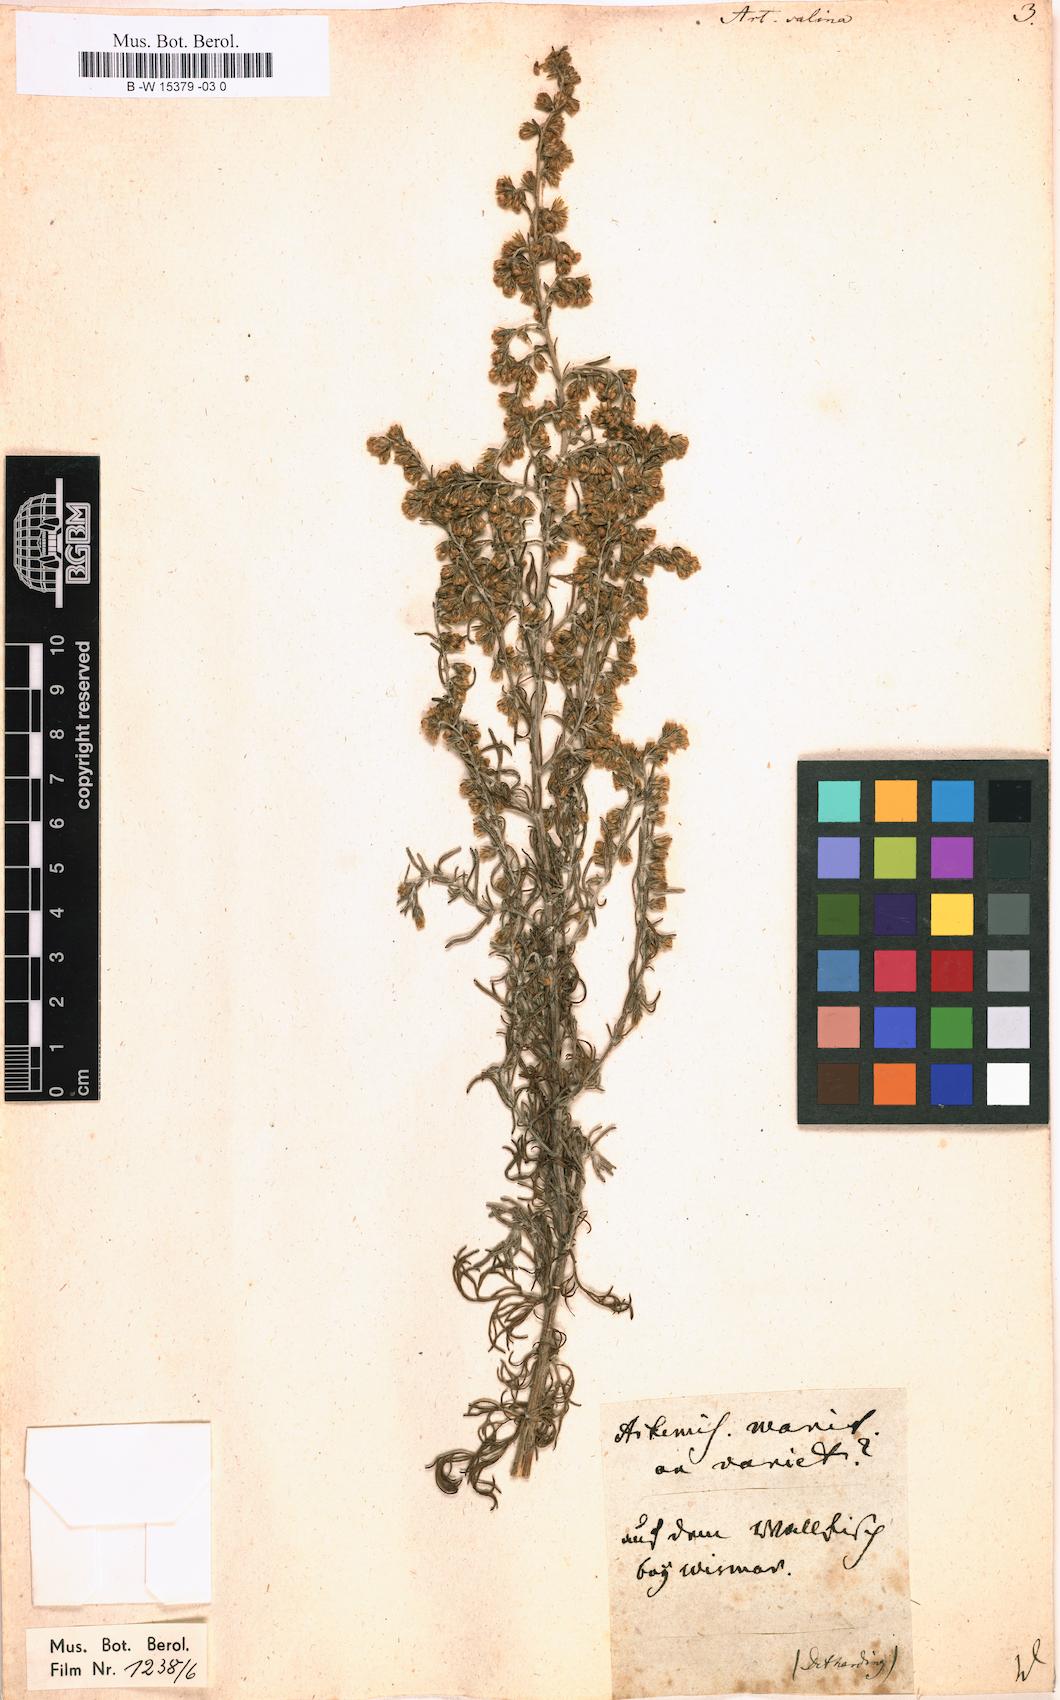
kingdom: Plantae
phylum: Tracheophyta
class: Magnoliopsida
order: Asterales
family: Asteraceae
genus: Artemisia
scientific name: Artemisia maritima
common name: Wormseed
